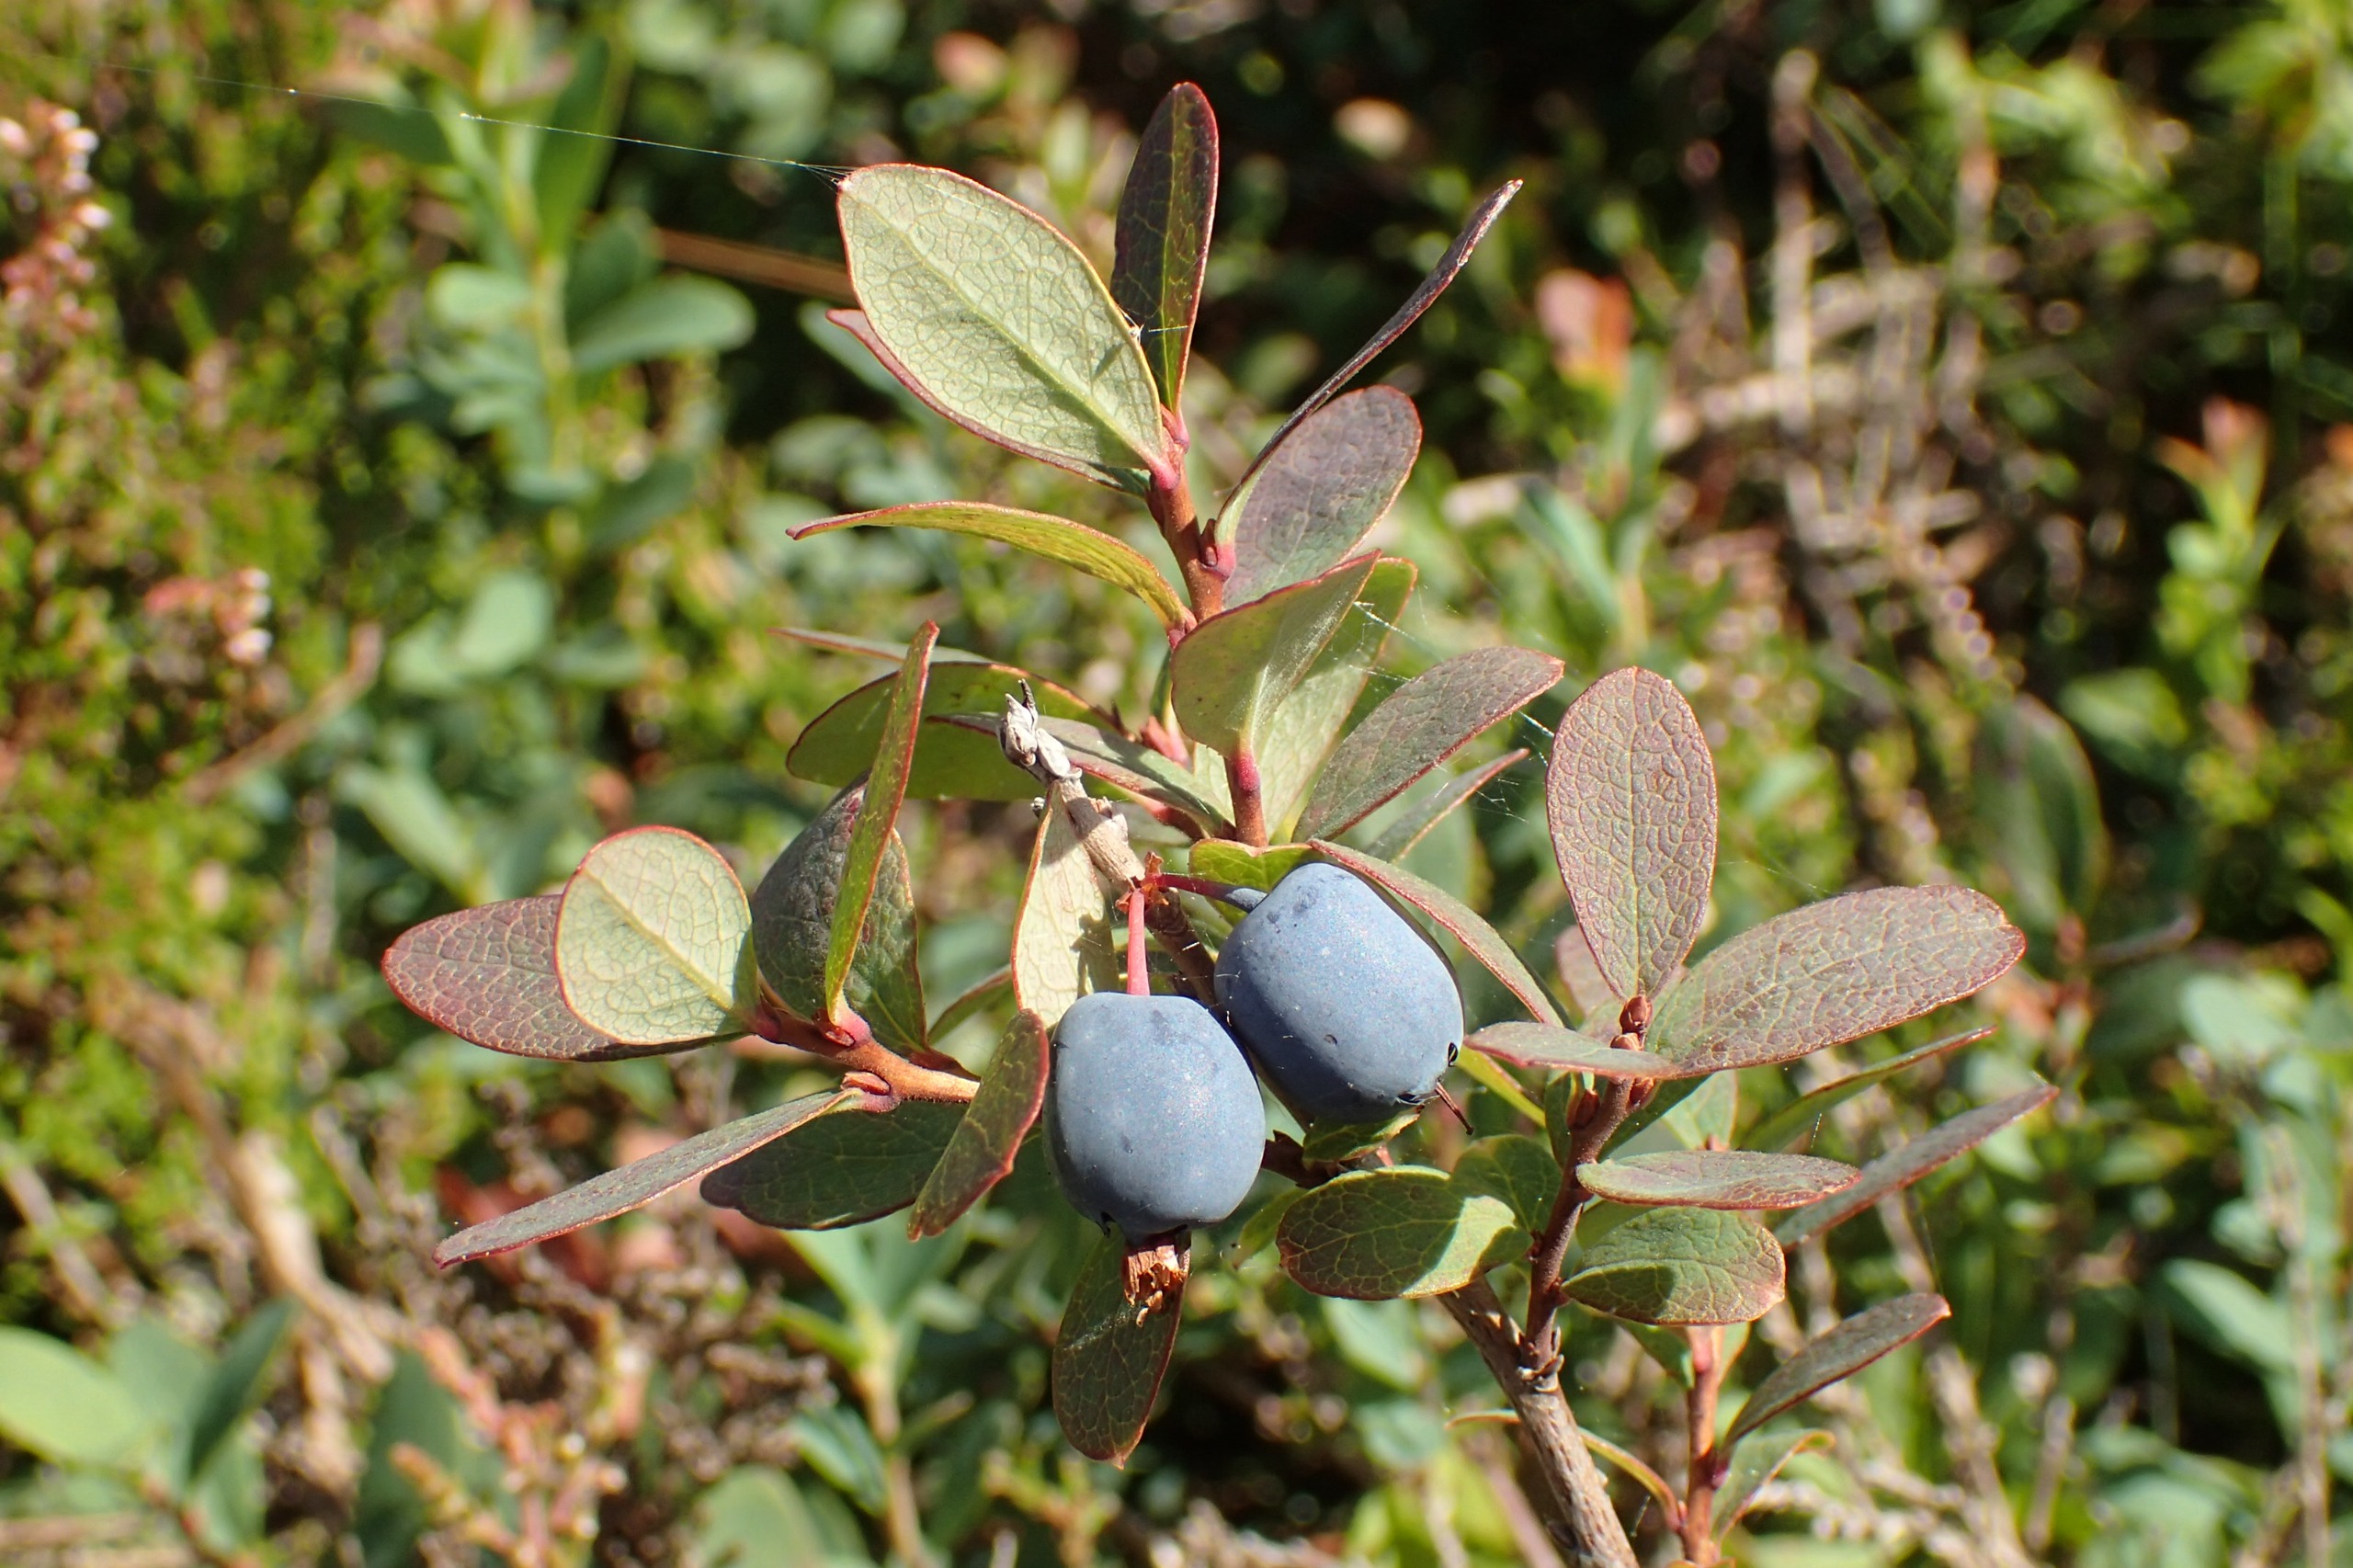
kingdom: Plantae
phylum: Tracheophyta
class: Magnoliopsida
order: Ericales
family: Ericaceae
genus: Vaccinium
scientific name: Vaccinium uliginosum
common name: Mose-bølle
